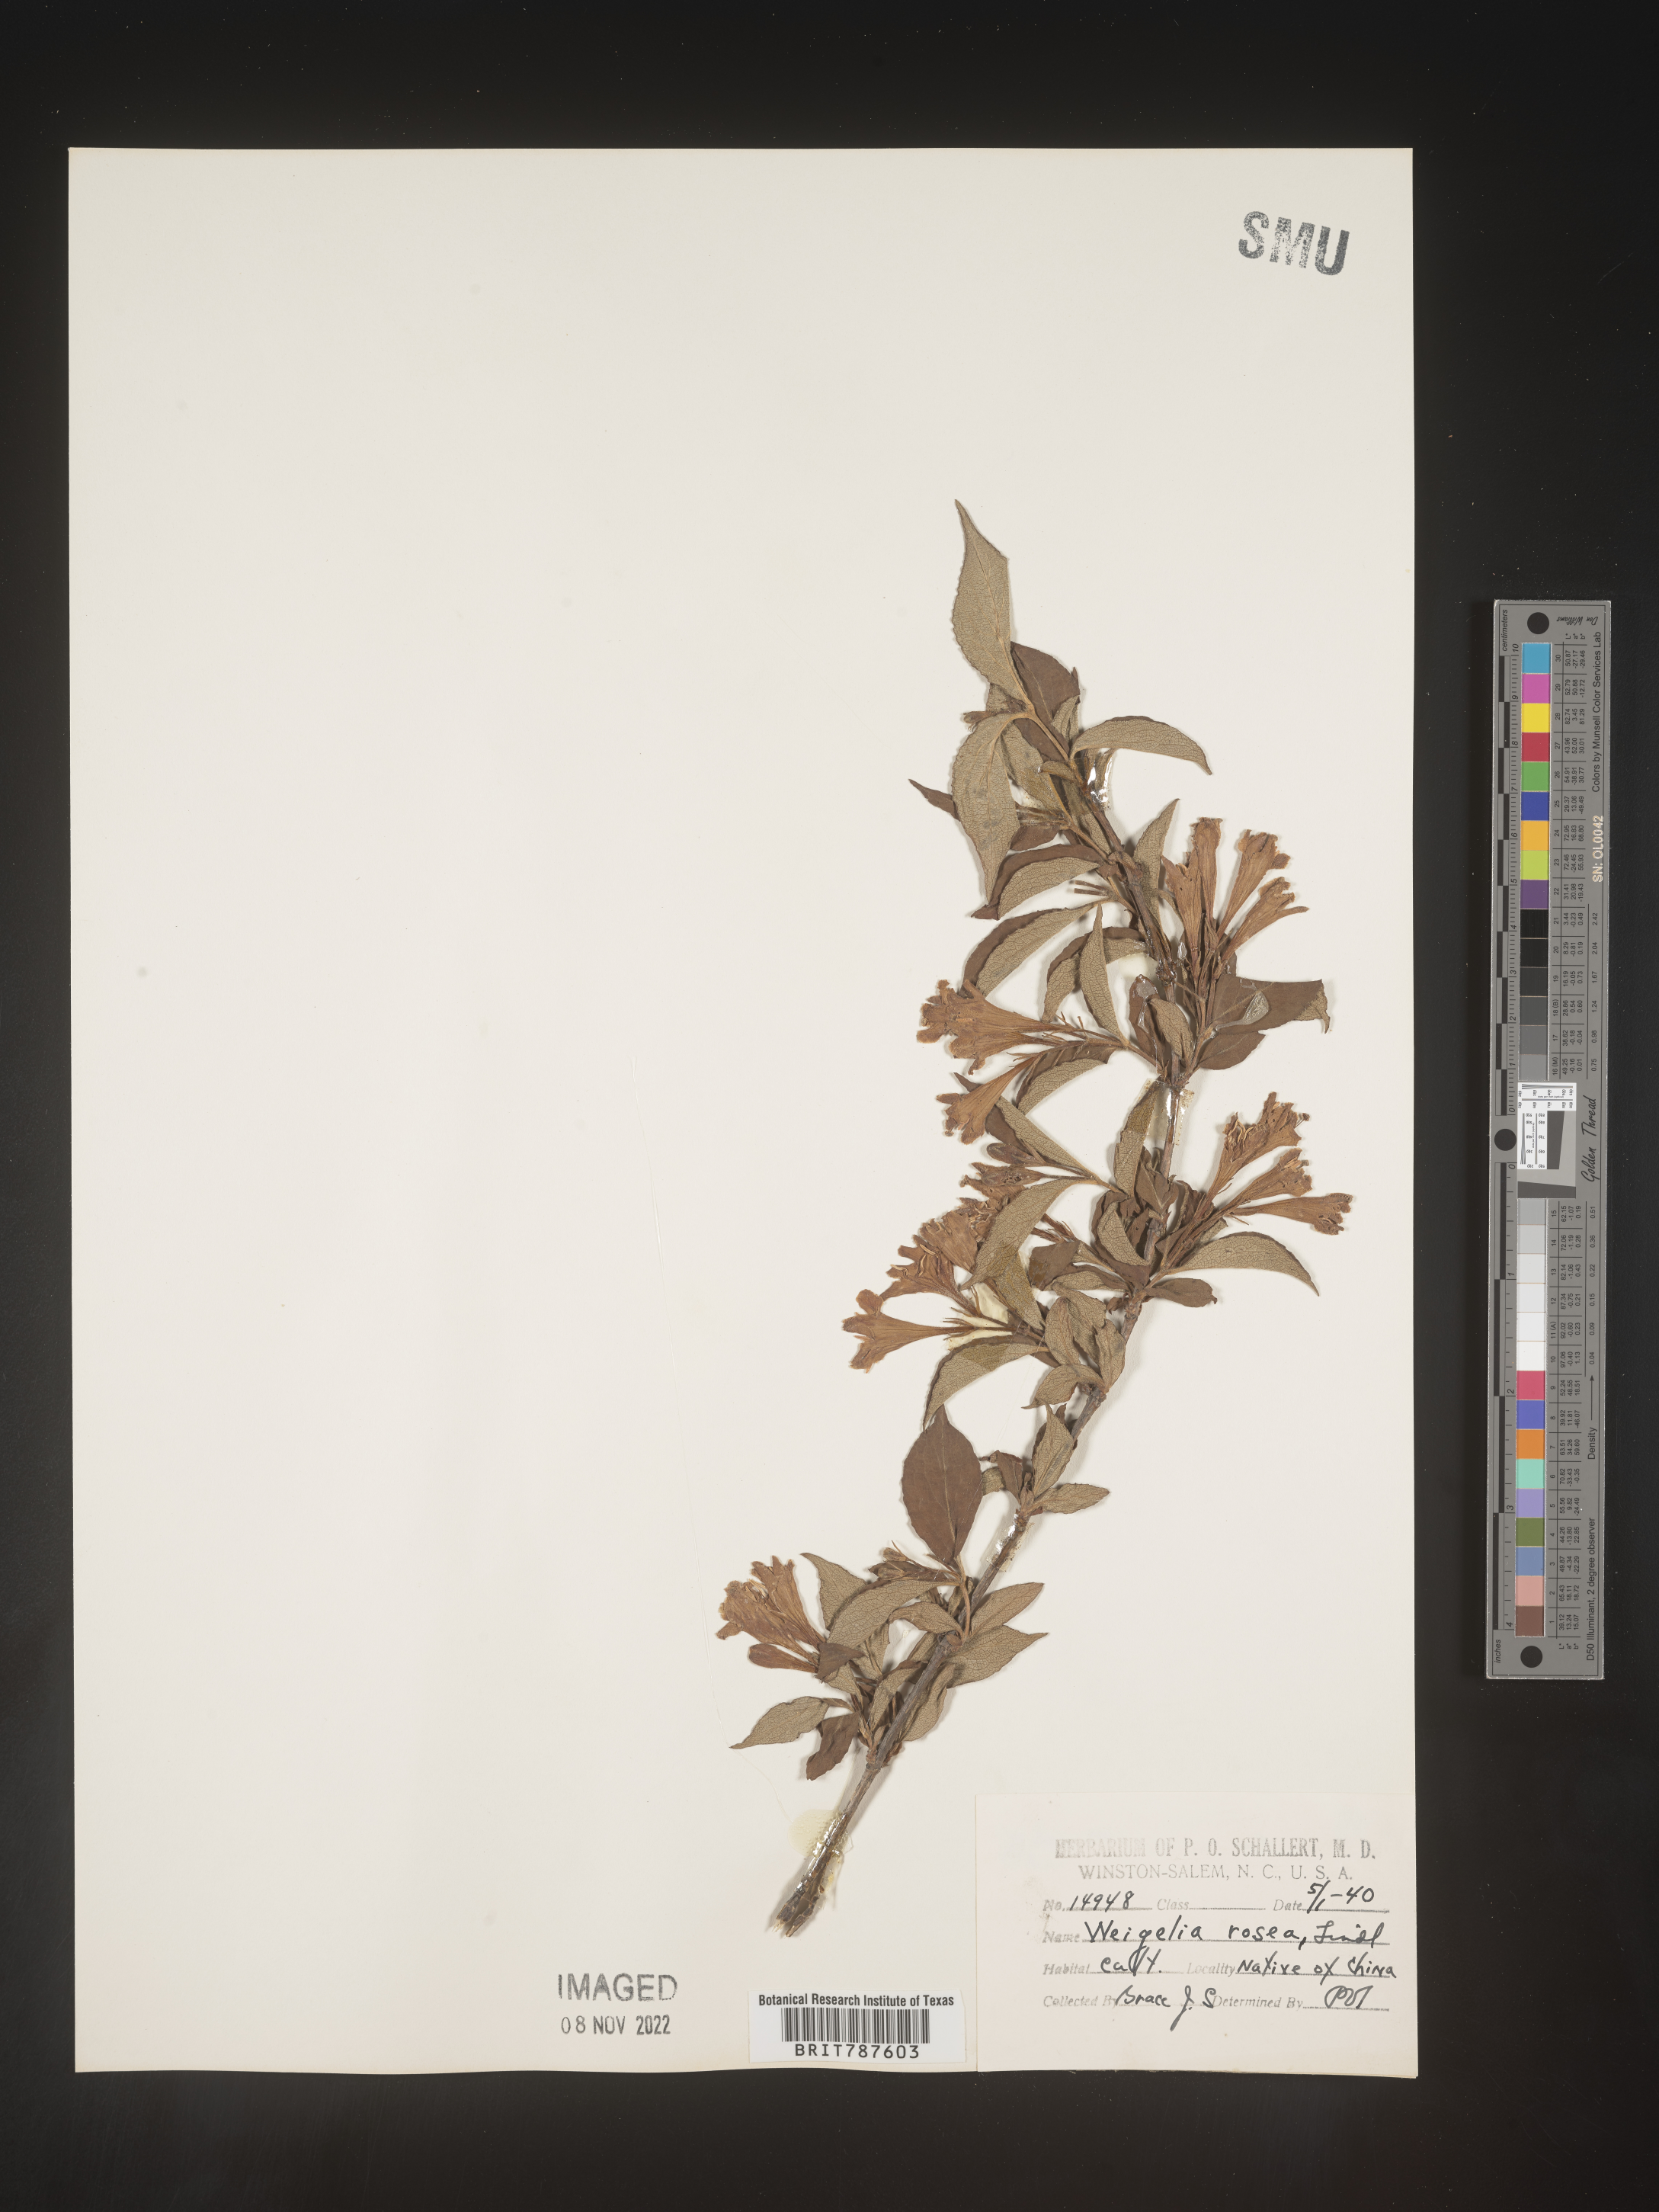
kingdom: Plantae
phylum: Tracheophyta
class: Magnoliopsida
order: Dipsacales
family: Caprifoliaceae
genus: Weigela
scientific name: Weigela
